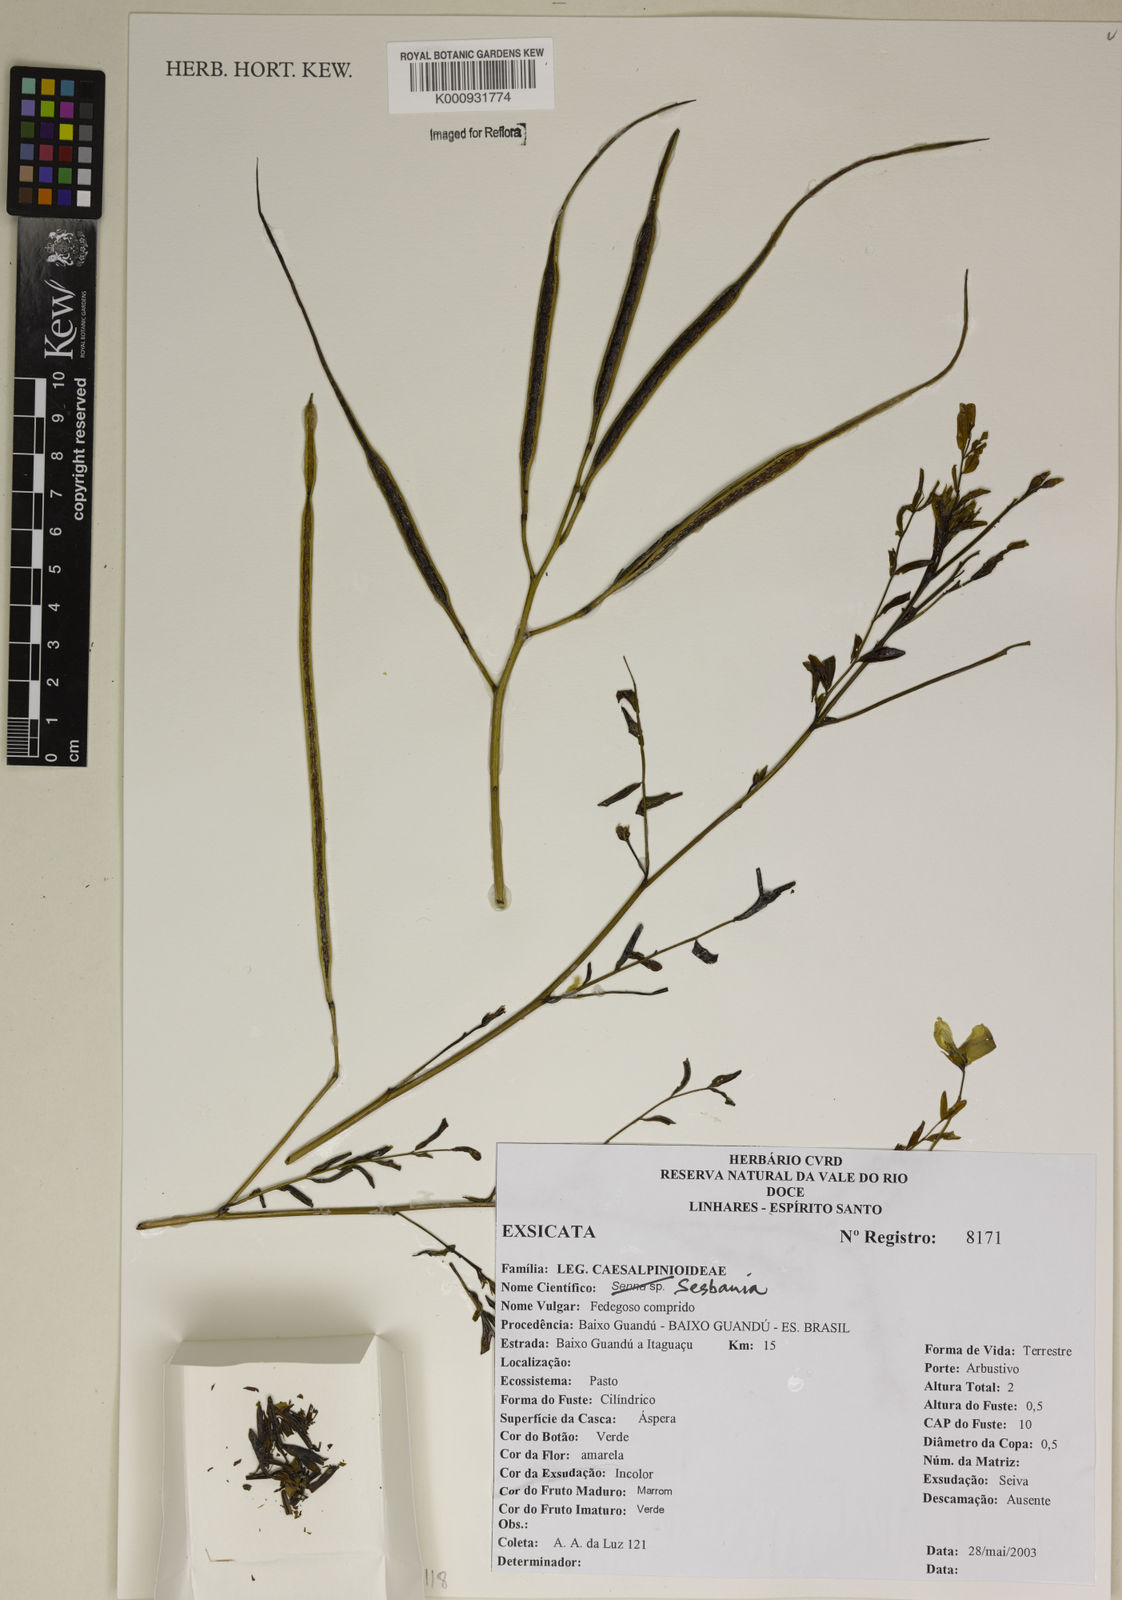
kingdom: Plantae
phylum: Tracheophyta
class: Magnoliopsida
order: Fabales
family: Fabaceae
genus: Sesbania
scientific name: Sesbania
